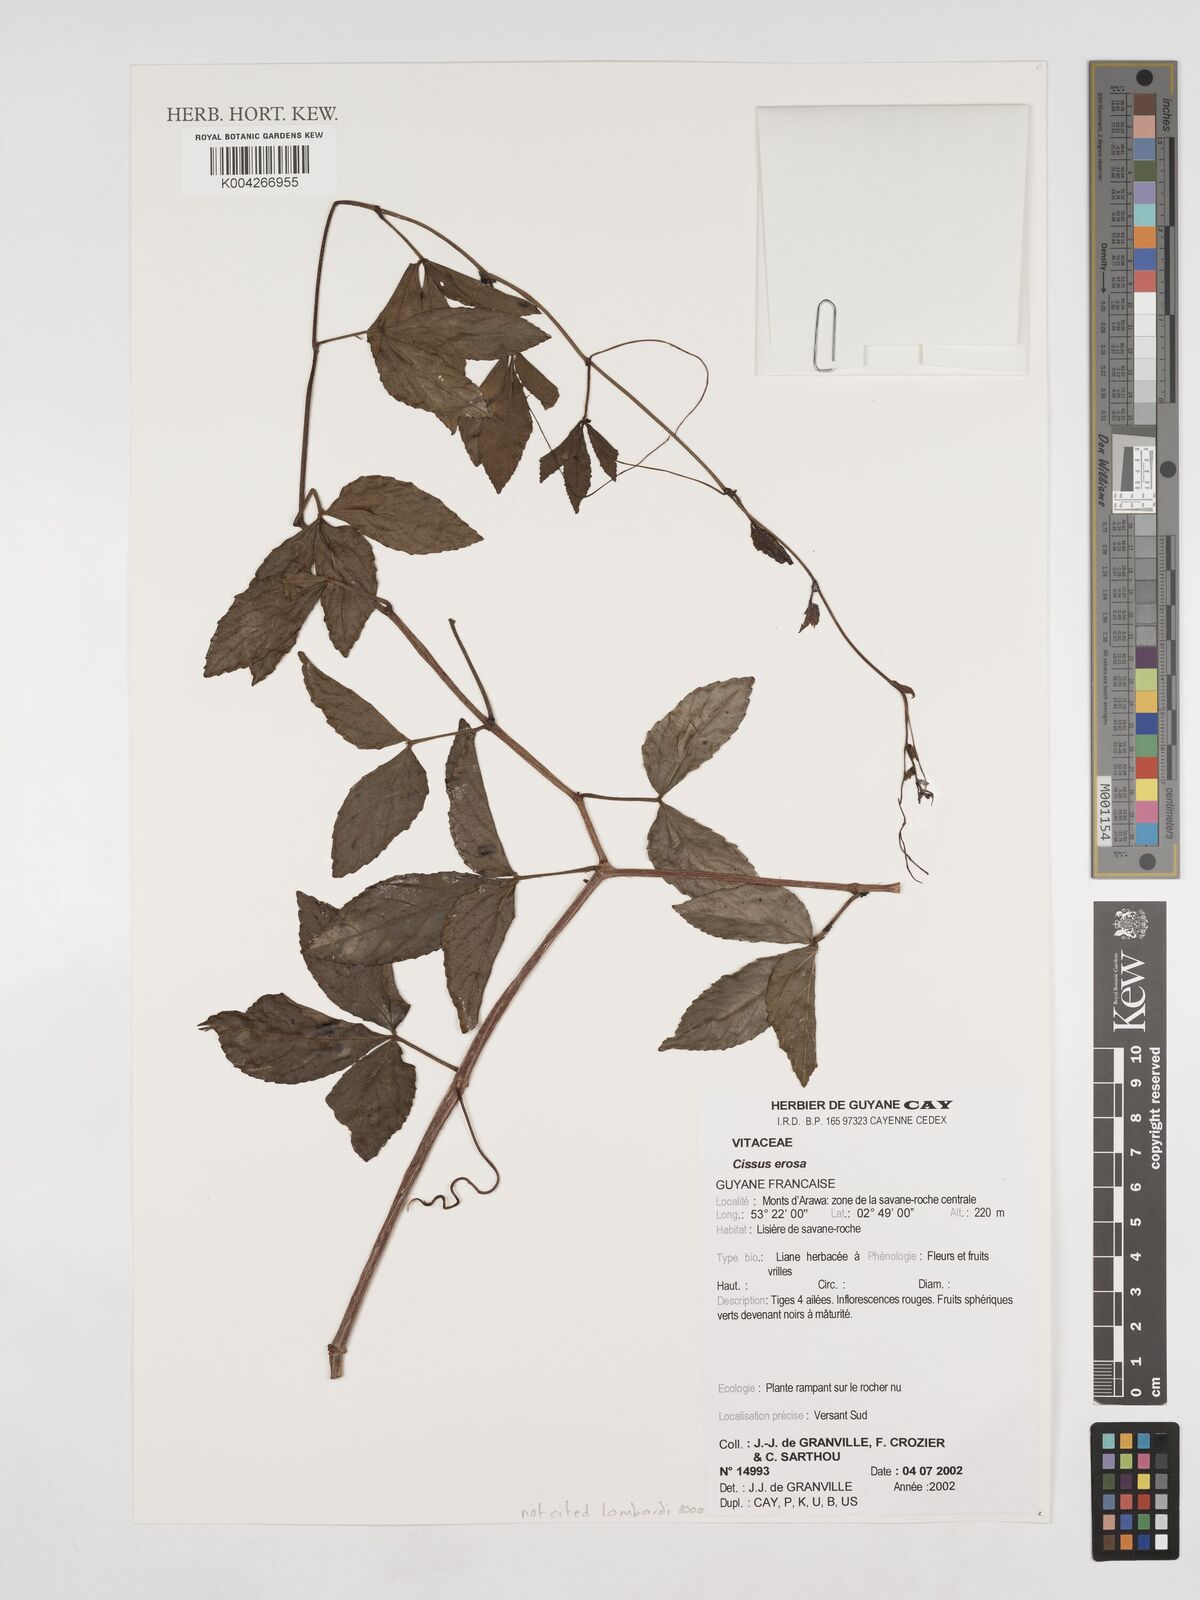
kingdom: Plantae
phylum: Tracheophyta
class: Magnoliopsida
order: Vitales
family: Vitaceae
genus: Cissus
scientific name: Cissus erosa
